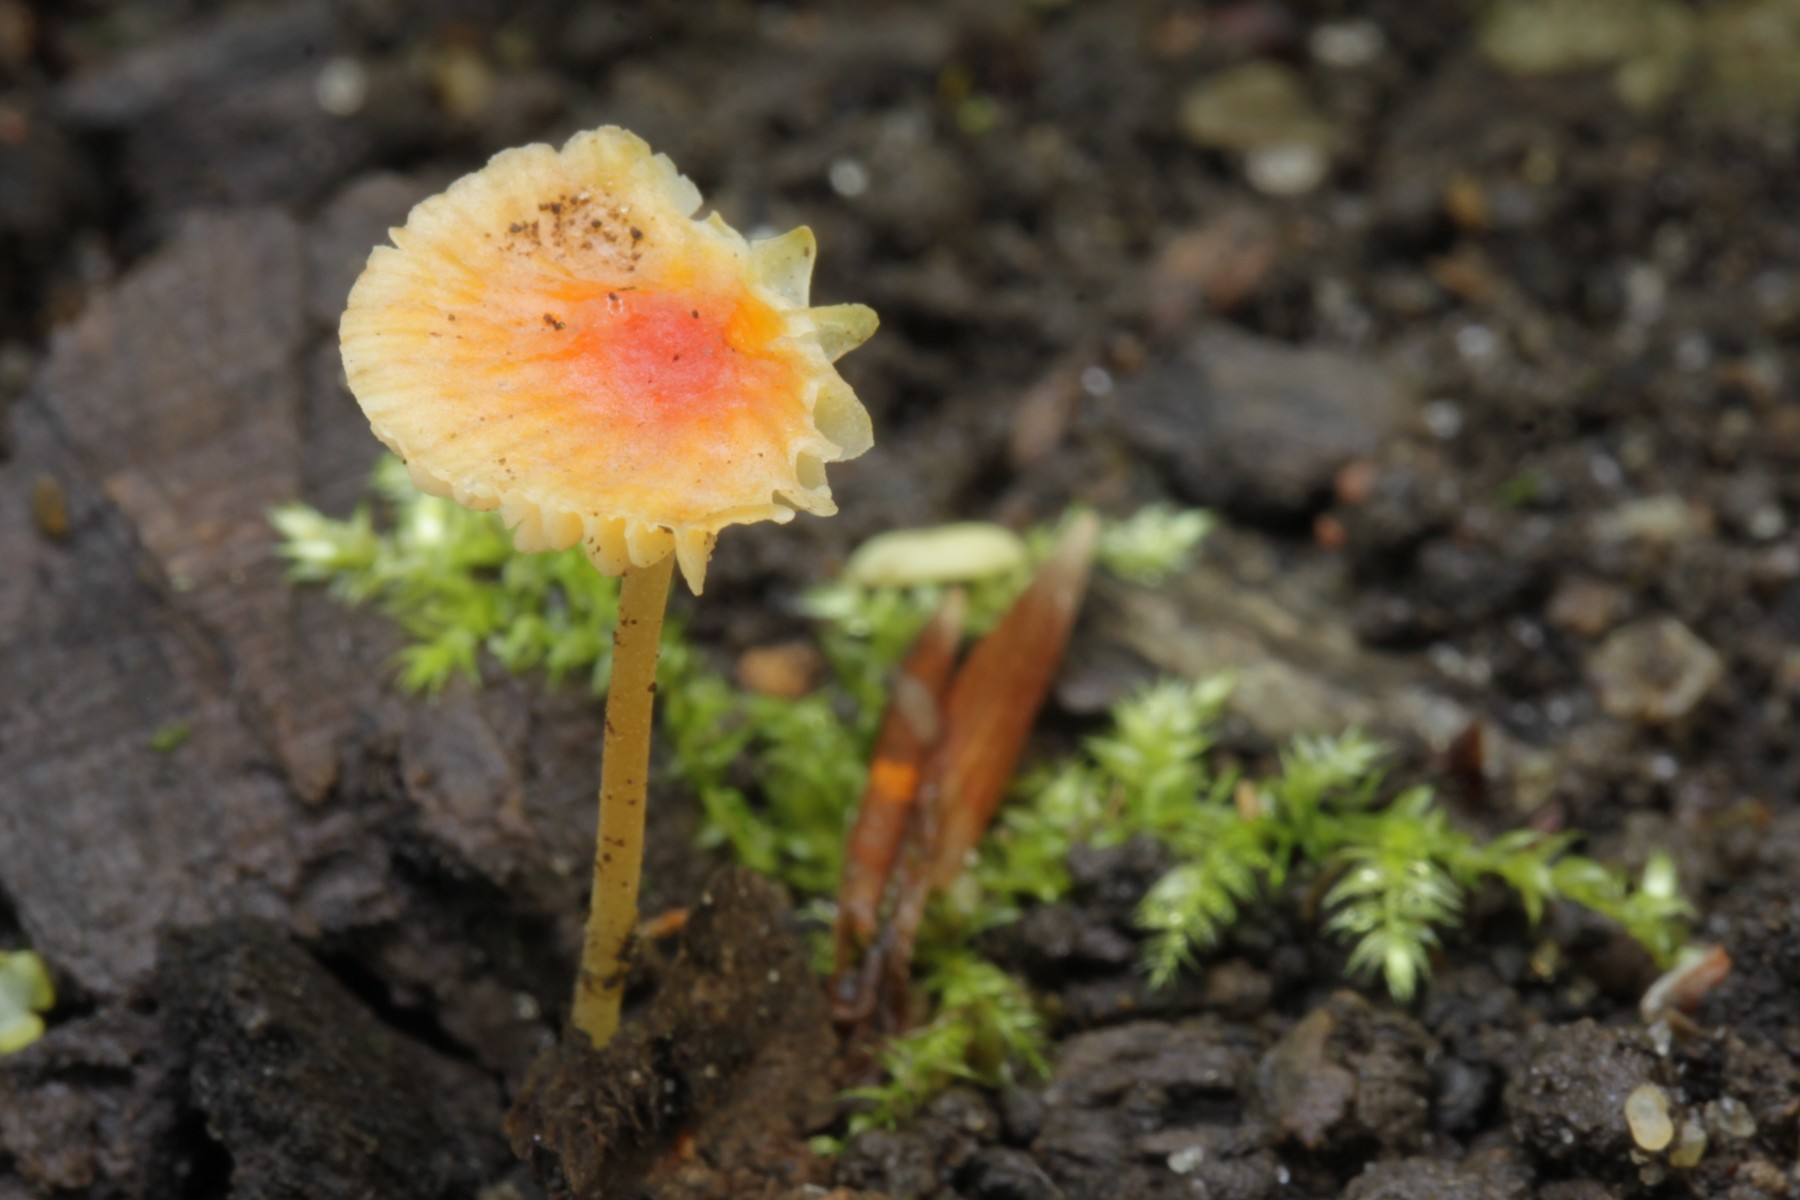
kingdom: Fungi
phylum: Basidiomycota
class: Agaricomycetes
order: Agaricales
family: Mycenaceae
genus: Mycena
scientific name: Mycena acicula
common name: orange huesvamp
